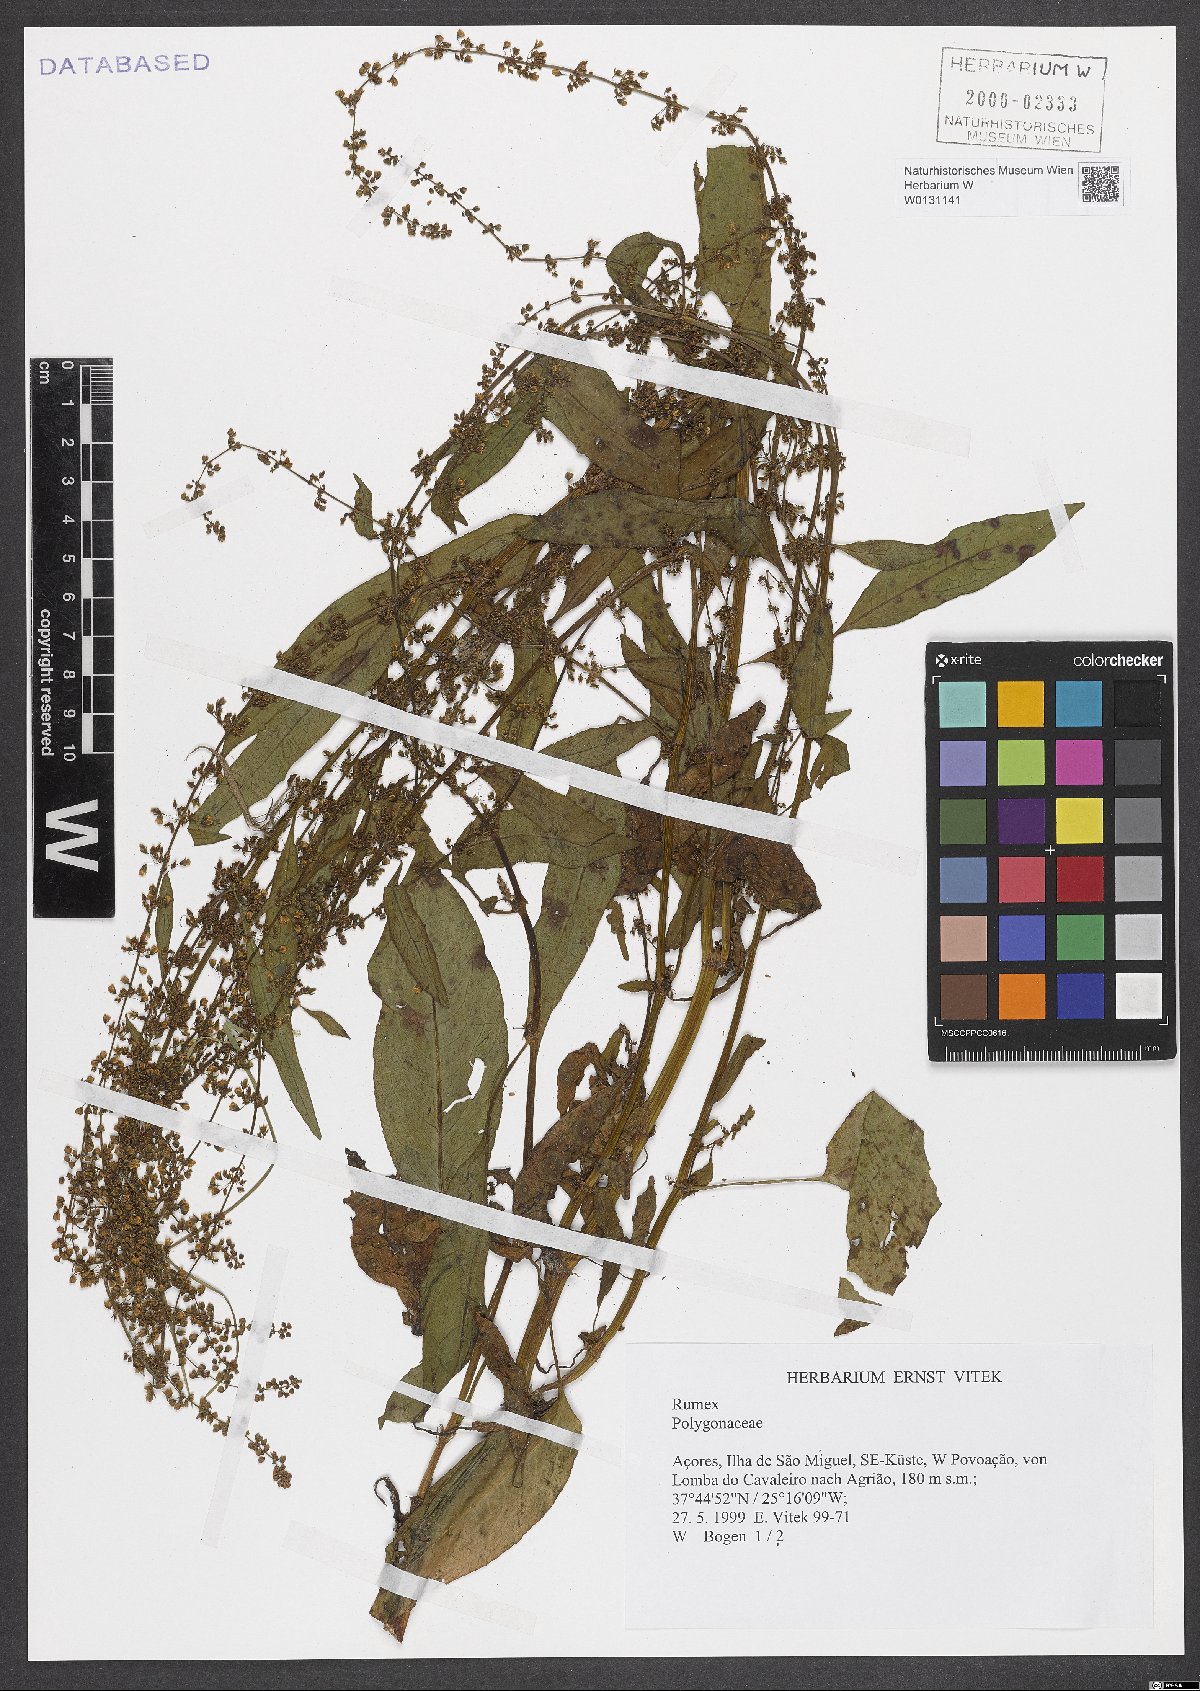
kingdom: Plantae
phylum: Tracheophyta
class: Magnoliopsida
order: Caryophyllales
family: Polygonaceae
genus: Rumex
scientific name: Rumex
